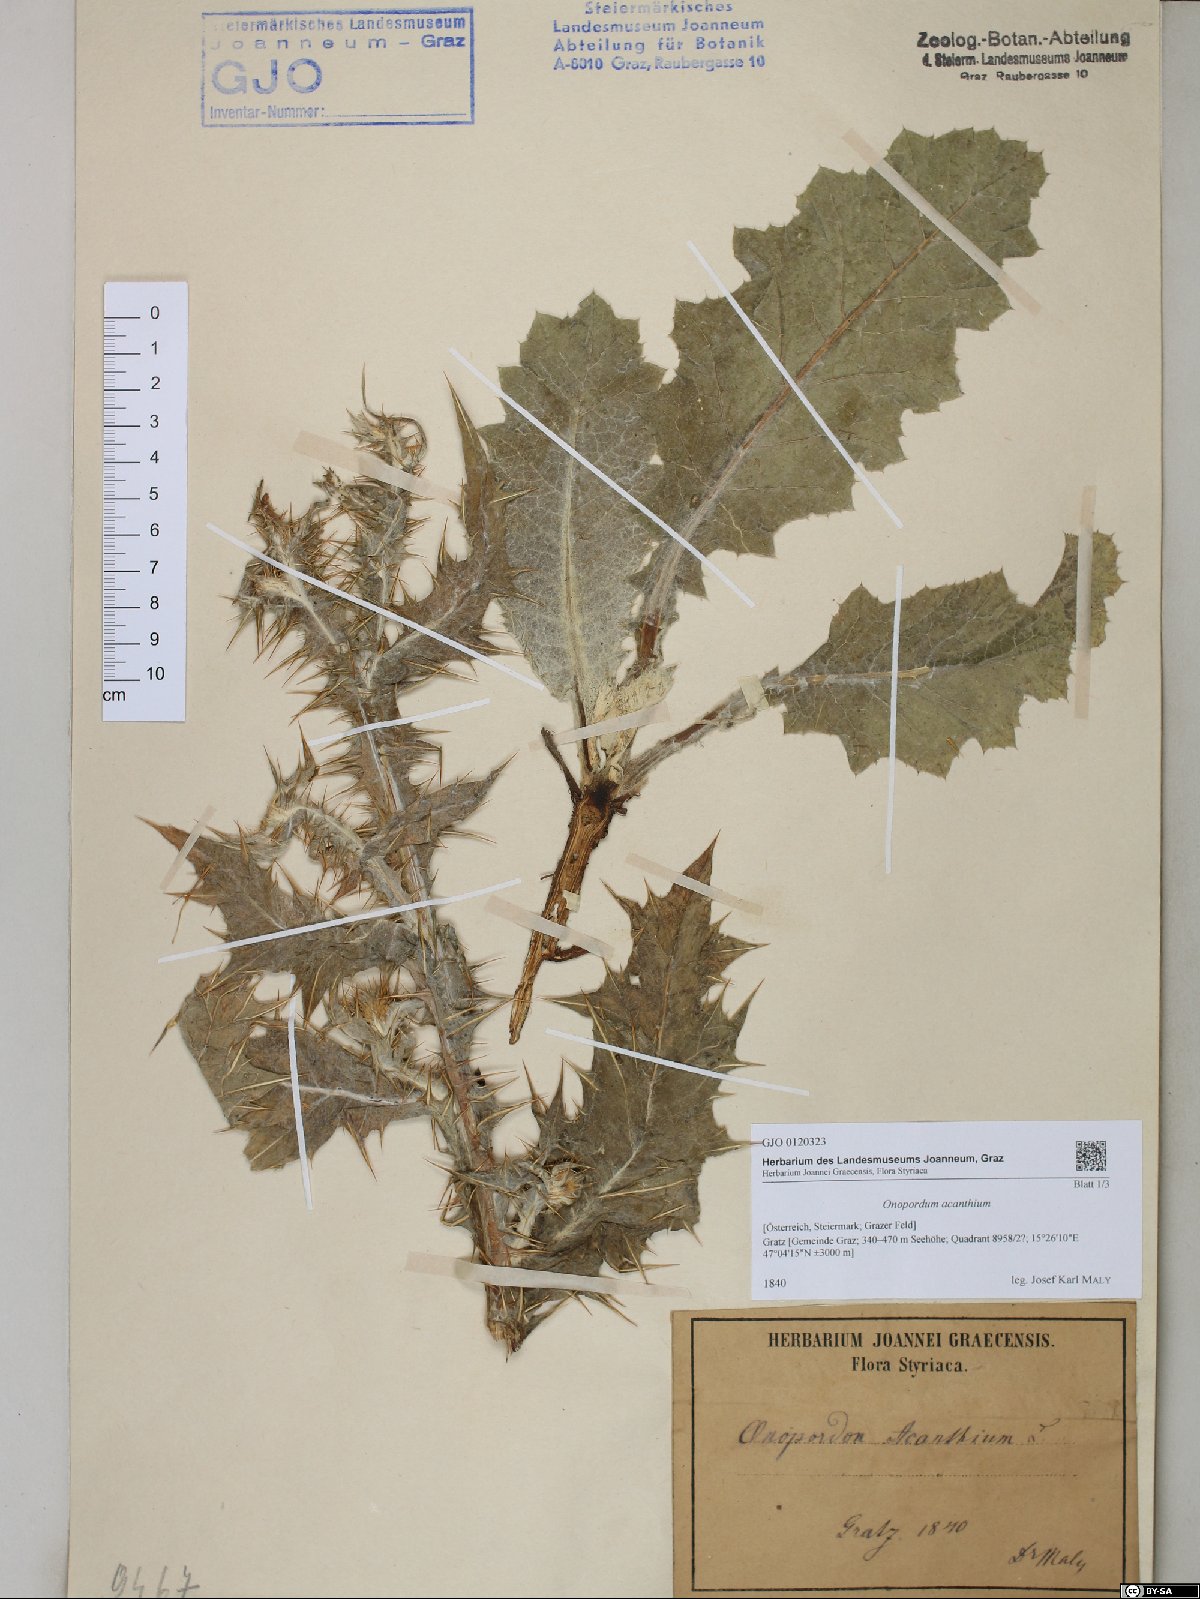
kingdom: Plantae
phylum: Tracheophyta
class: Magnoliopsida
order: Asterales
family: Asteraceae
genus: Onopordum
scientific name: Onopordum acanthium
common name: Scotch thistle
